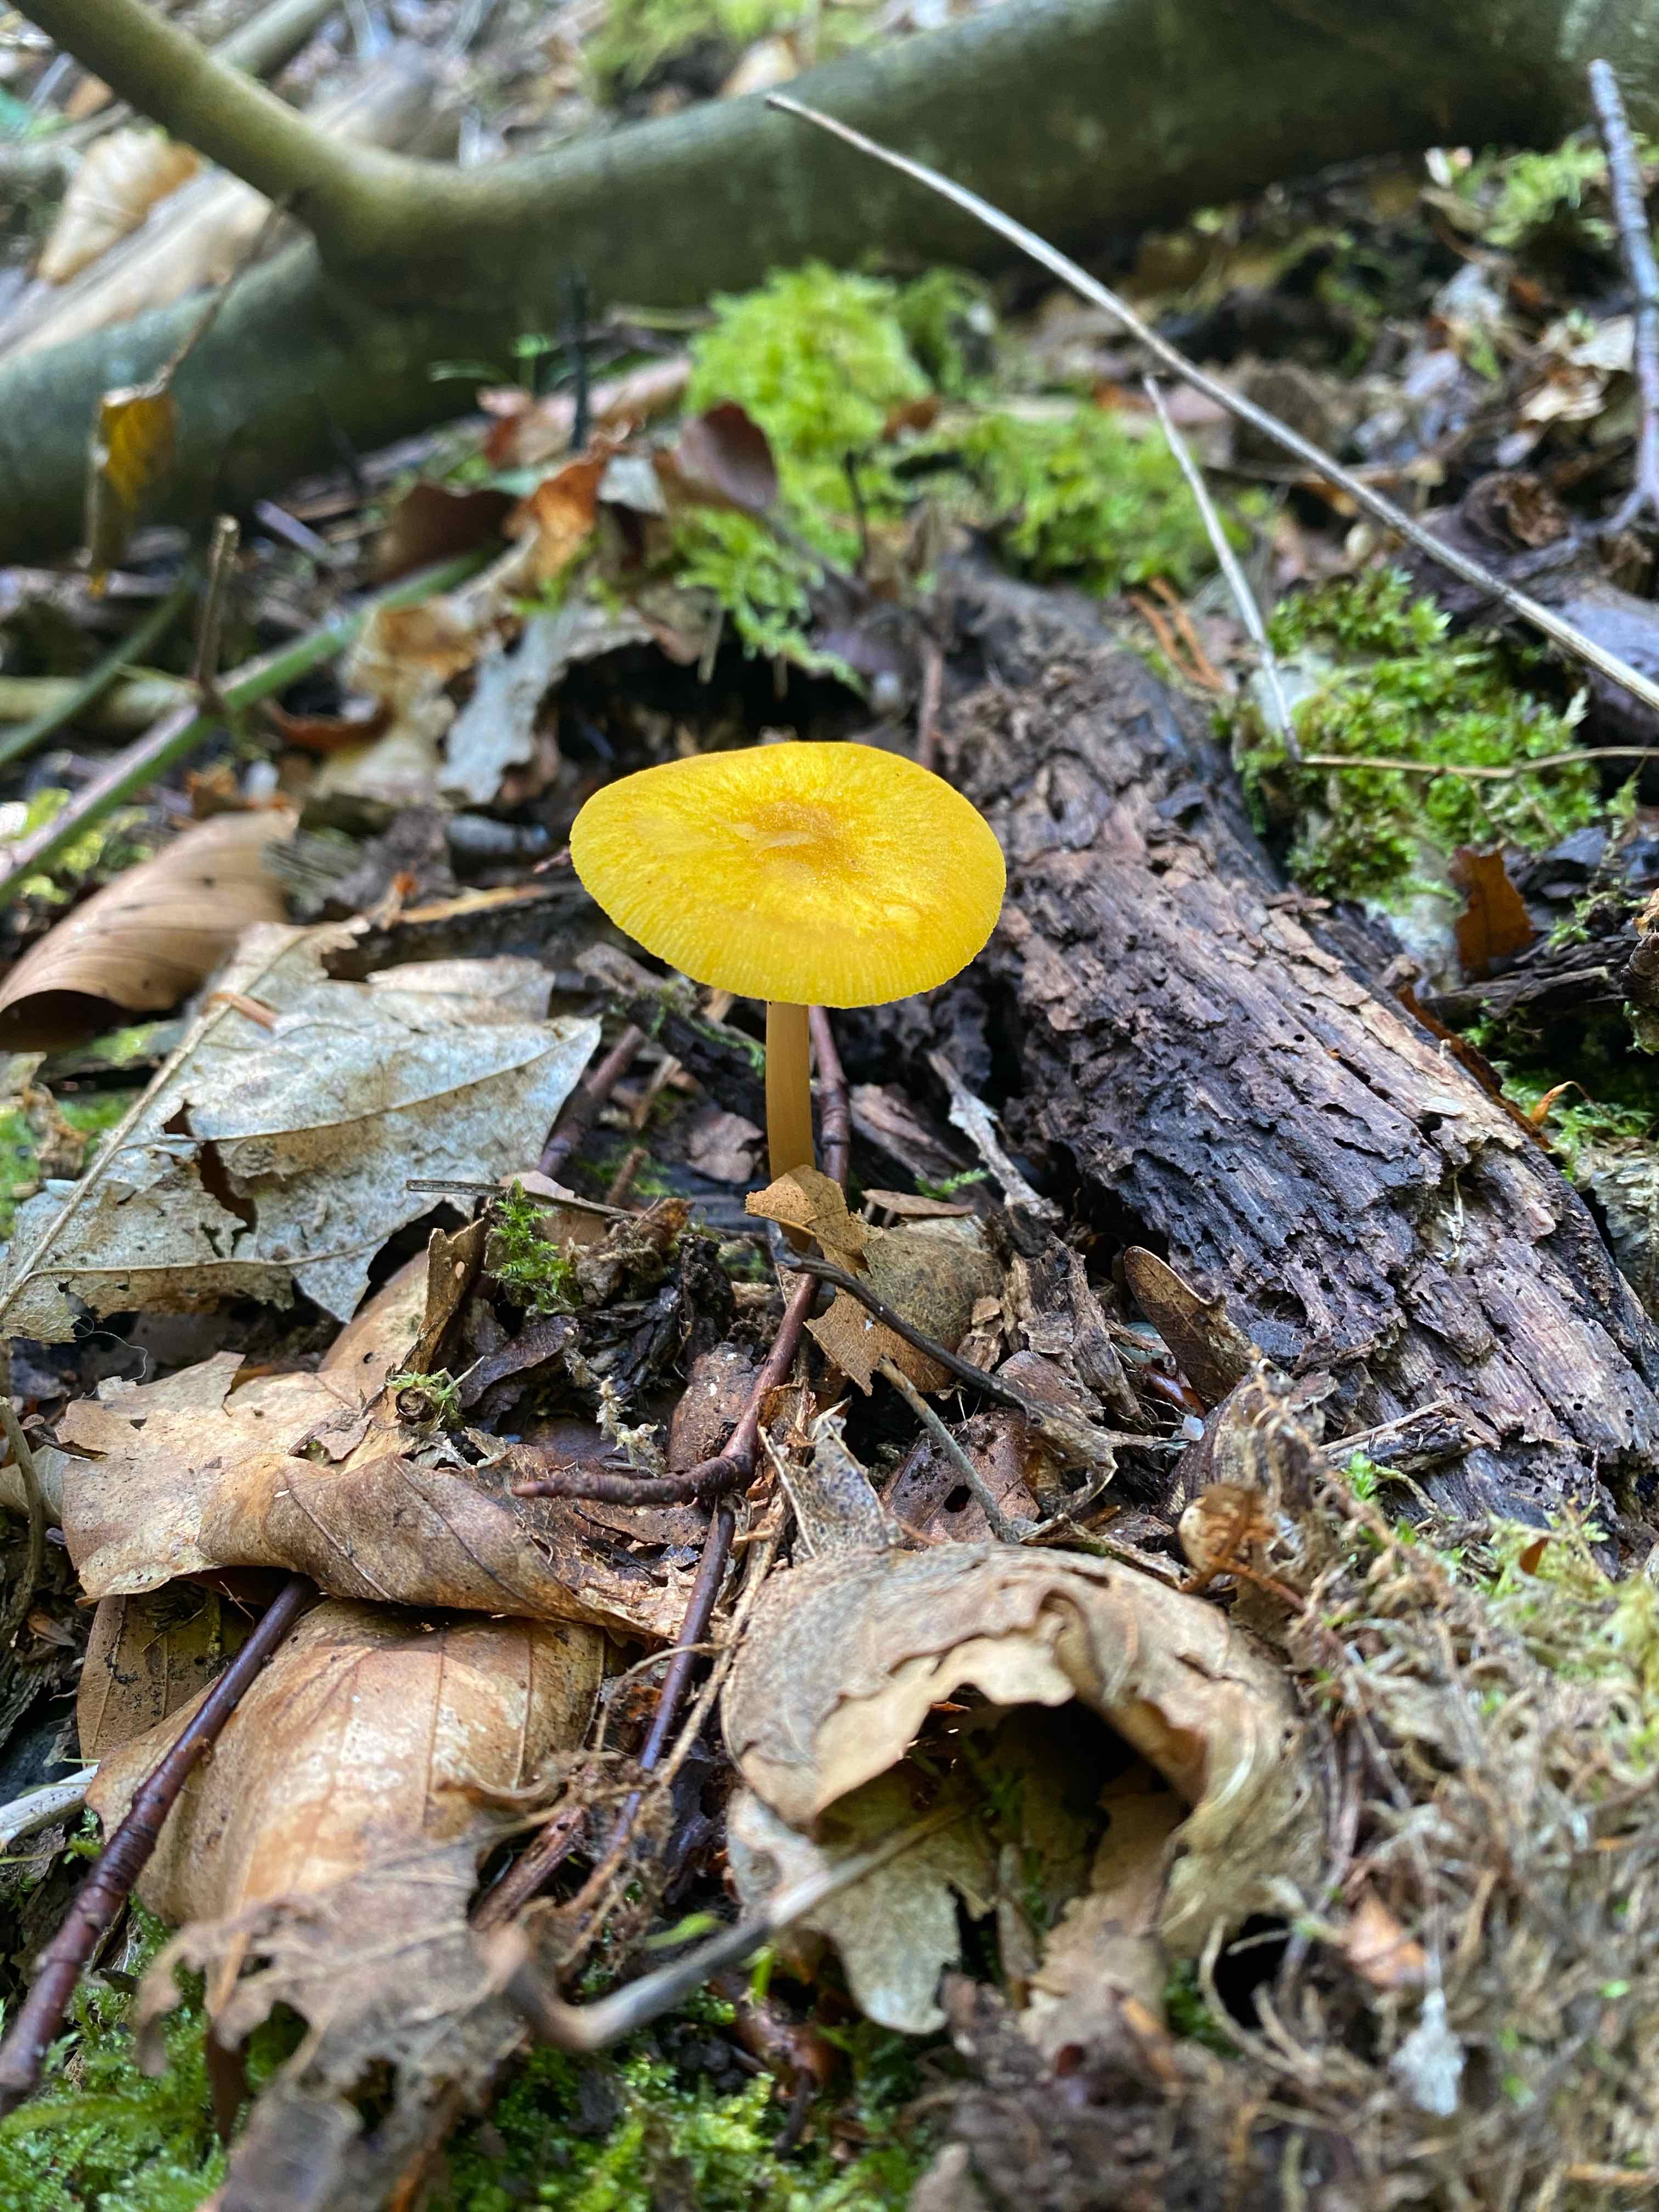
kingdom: Fungi
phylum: Basidiomycota
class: Agaricomycetes
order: Agaricales
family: Pluteaceae
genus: Pluteus
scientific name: Pluteus leoninus
